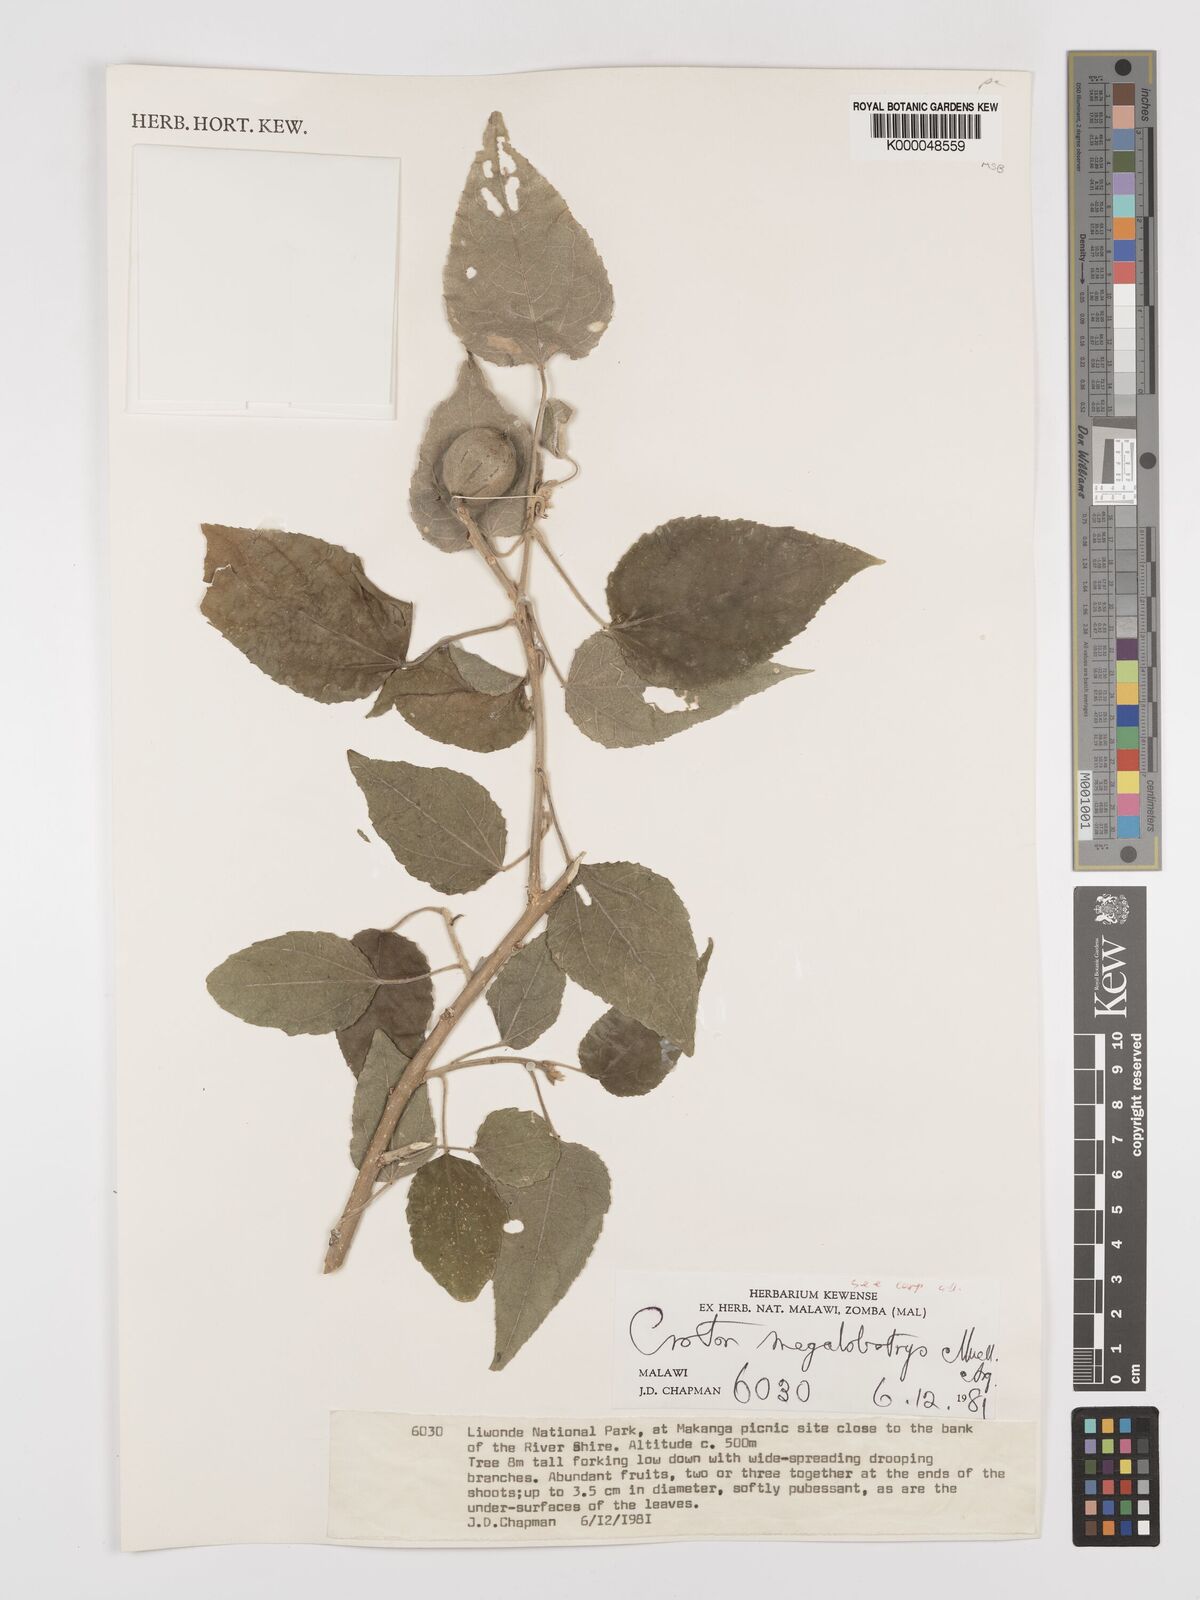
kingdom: Plantae
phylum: Tracheophyta
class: Magnoliopsida
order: Malpighiales
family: Euphorbiaceae
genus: Croton
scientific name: Croton
